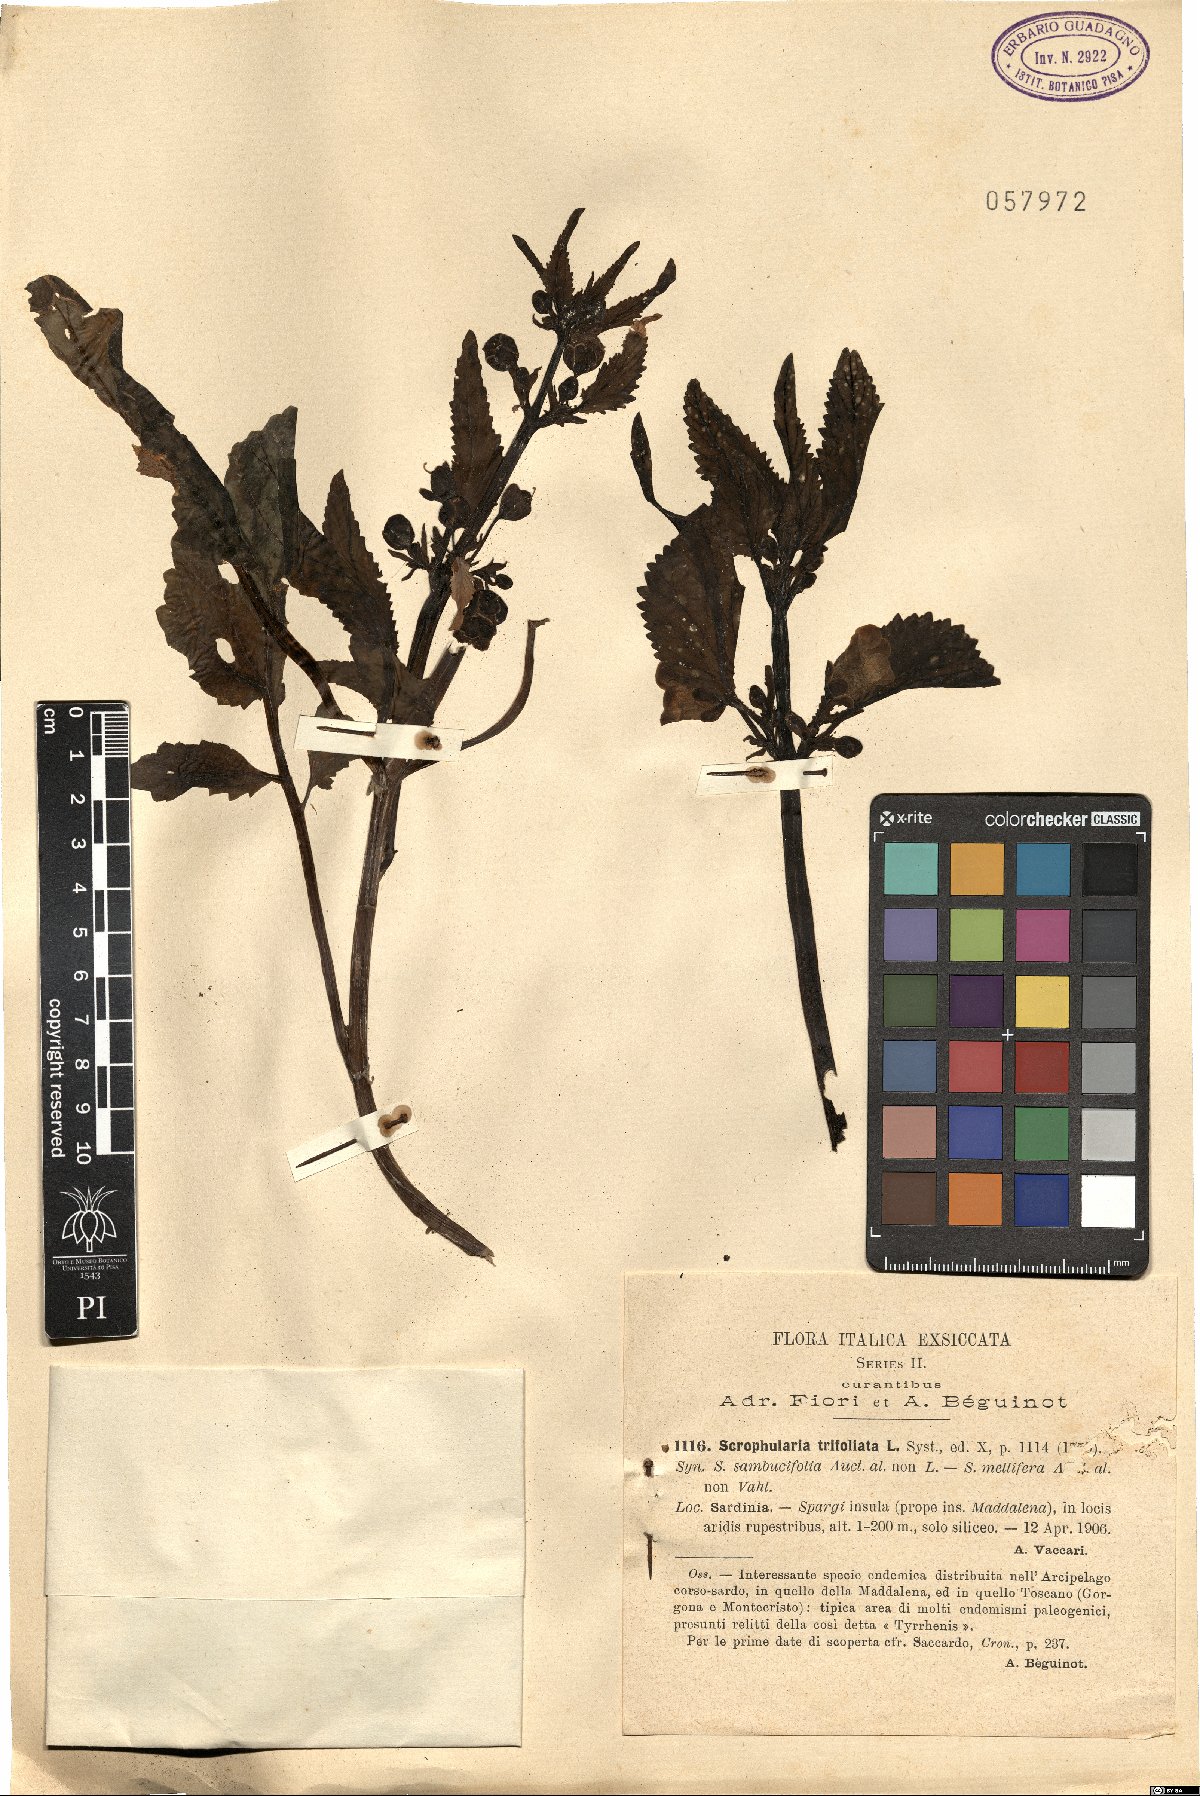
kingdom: Plantae
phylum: Tracheophyta
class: Magnoliopsida
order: Lamiales
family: Scrophulariaceae
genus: Scrophularia
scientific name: Scrophularia trifoliata
